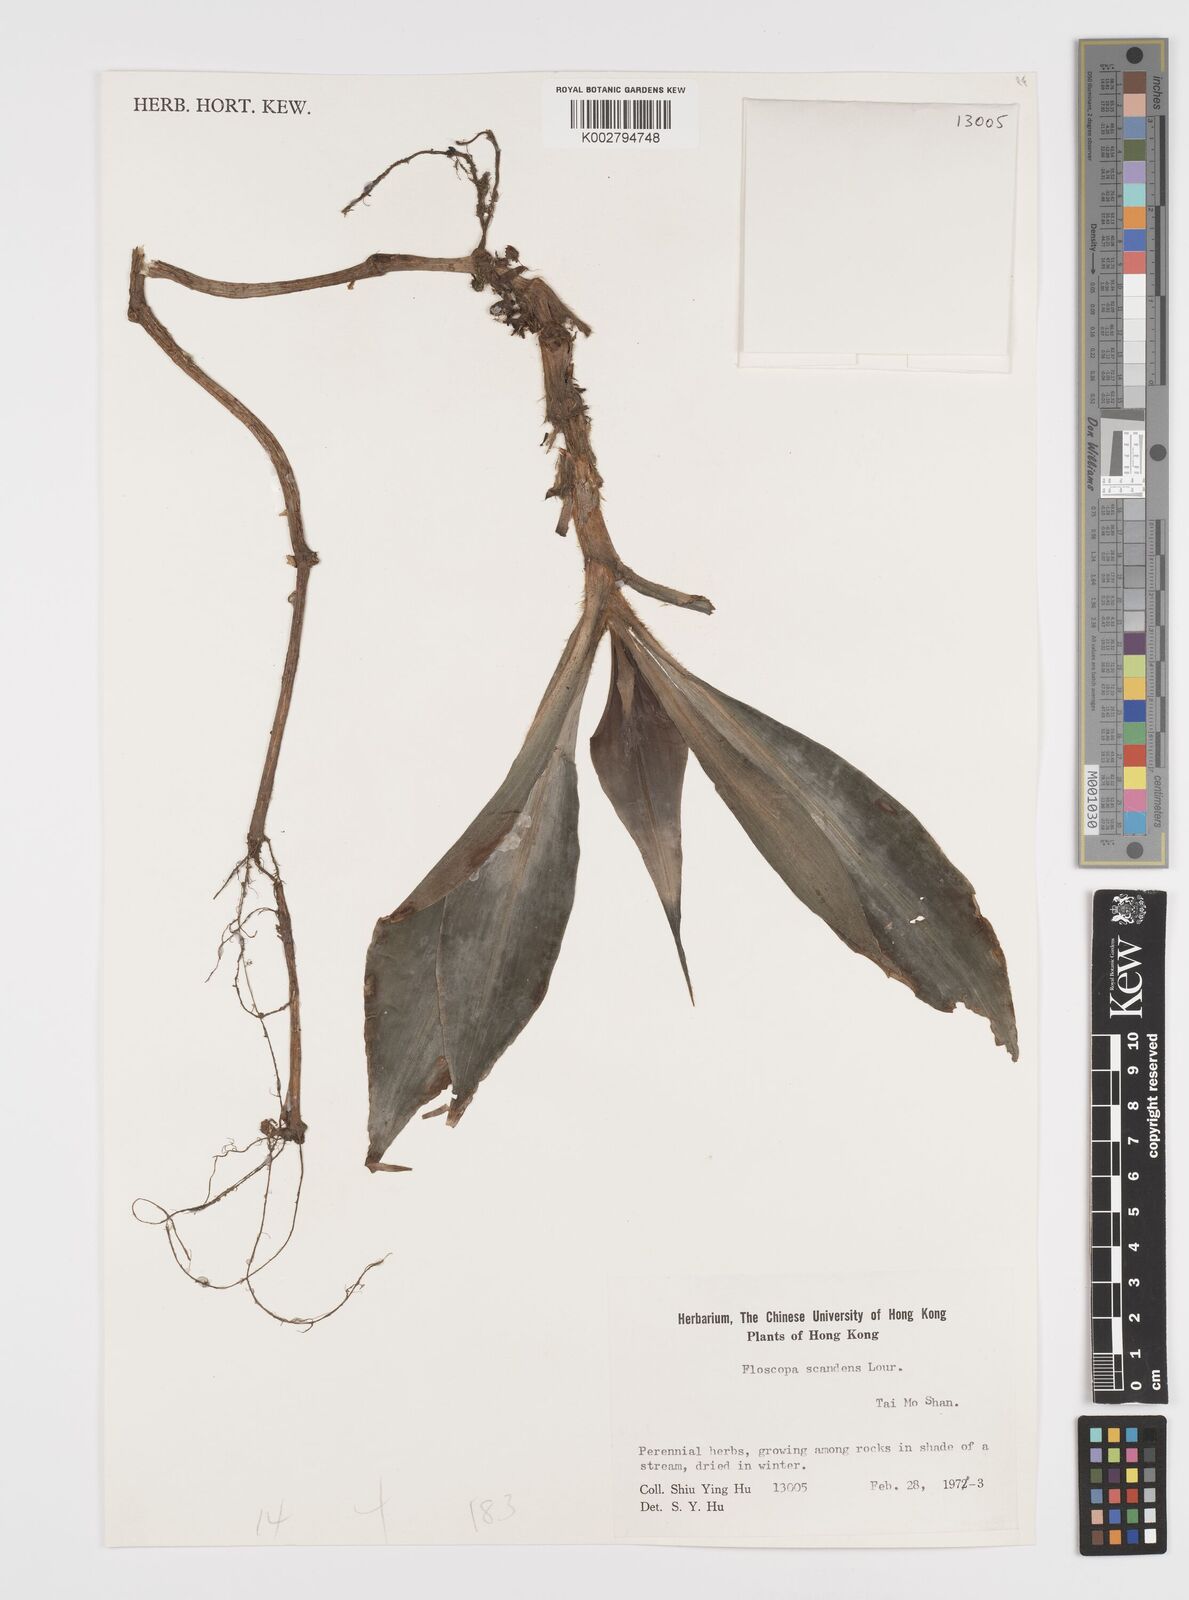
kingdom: Plantae
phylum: Tracheophyta
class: Liliopsida
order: Commelinales
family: Commelinaceae
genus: Floscopa
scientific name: Floscopa scandens
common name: Climbing flower cup
